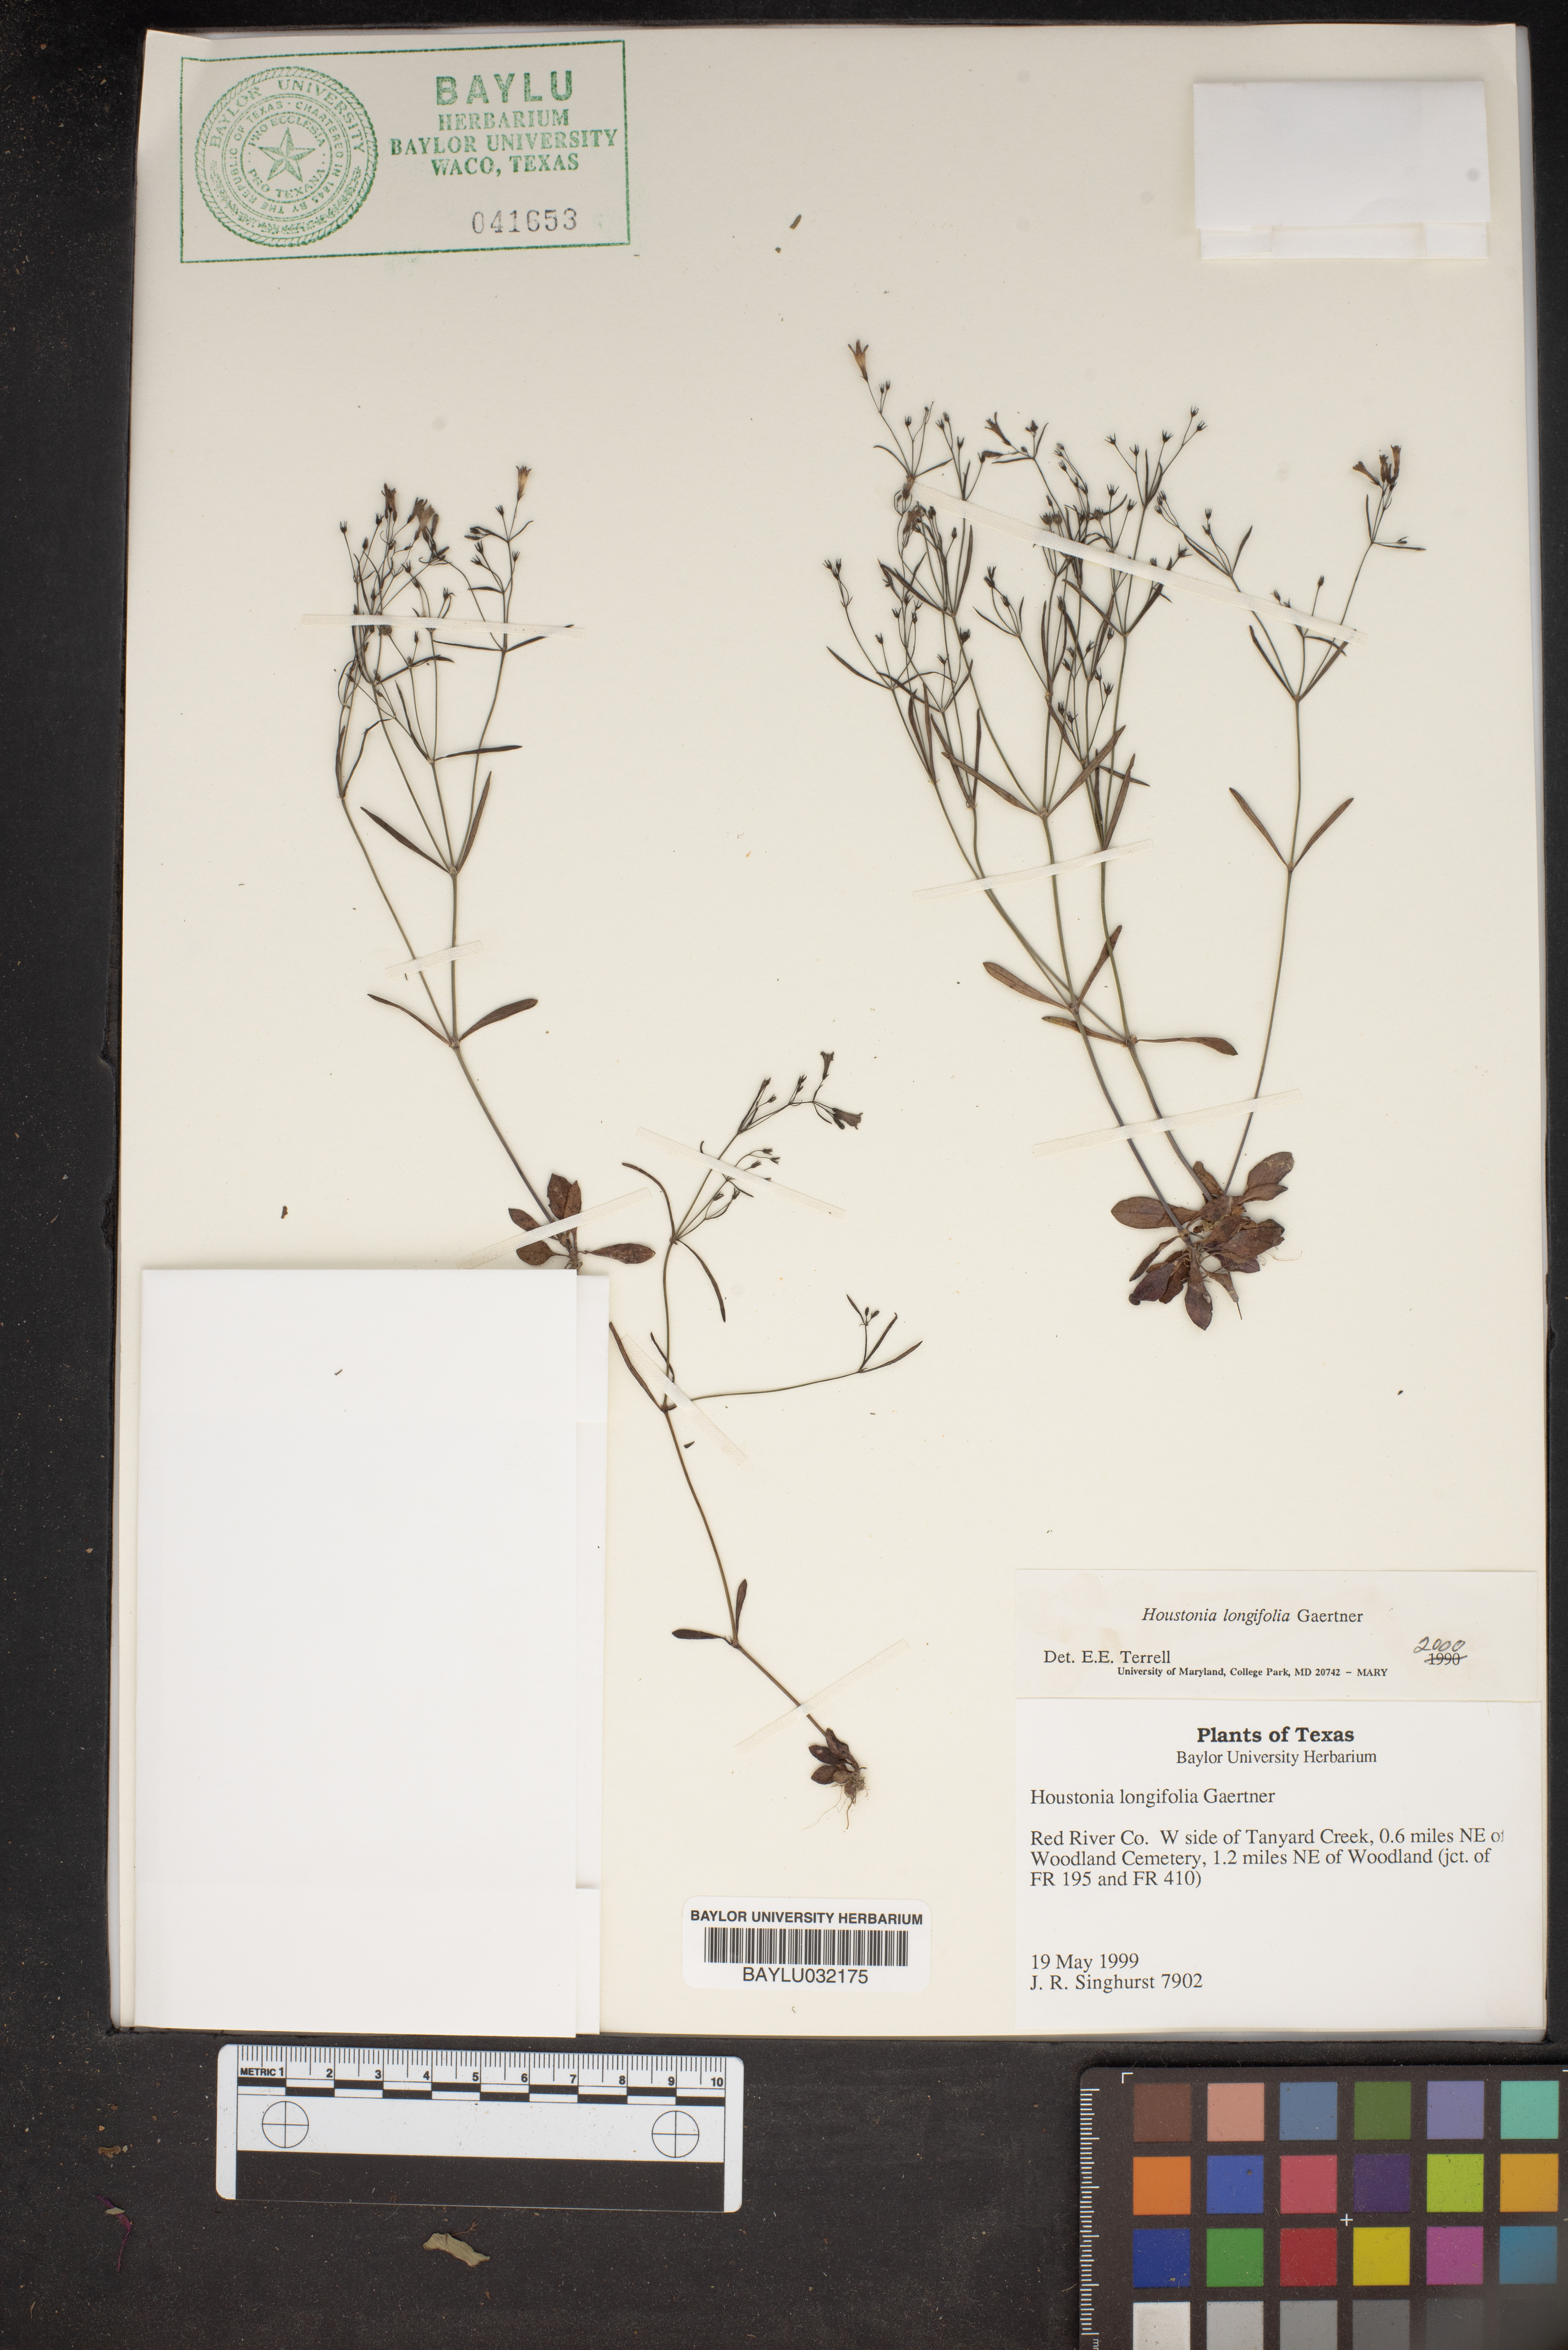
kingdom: Plantae
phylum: Tracheophyta
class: Magnoliopsida
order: Gentianales
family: Rubiaceae
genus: Houstonia
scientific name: Houstonia longifolia
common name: Long-leaved bluets
